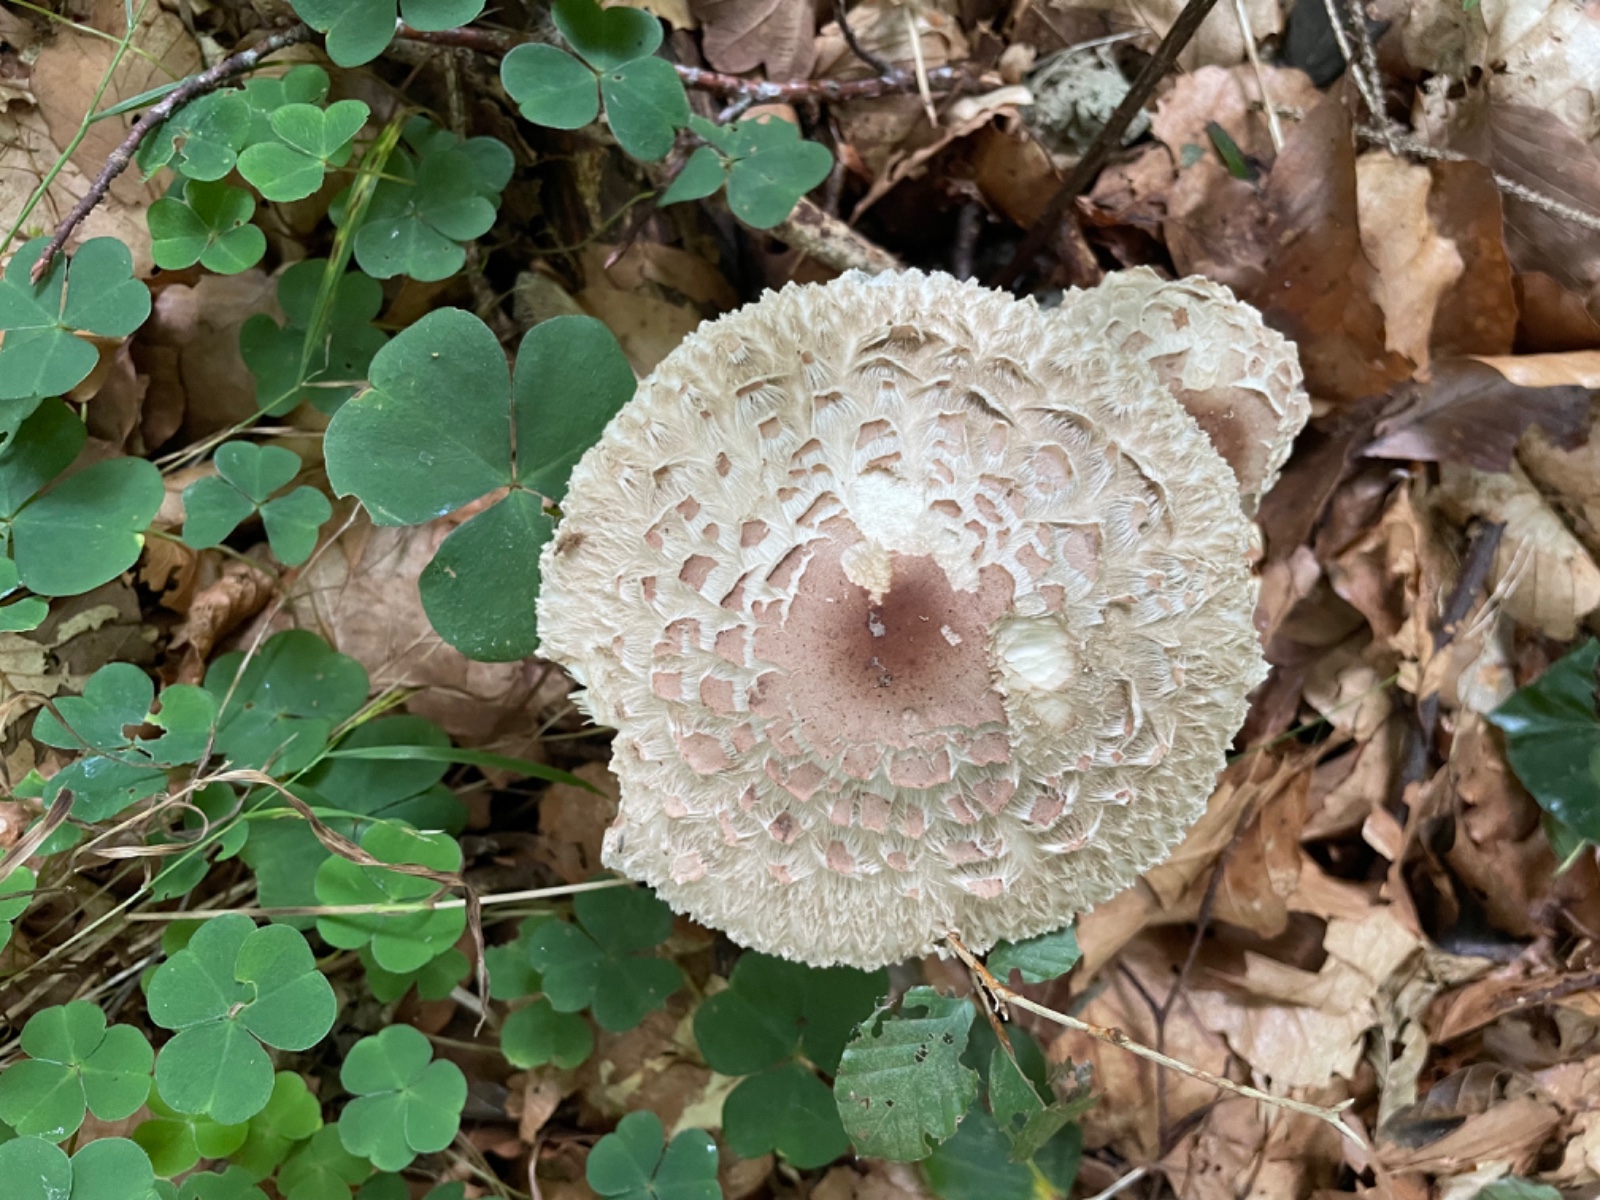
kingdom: Fungi
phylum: Basidiomycota
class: Agaricomycetes
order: Agaricales
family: Agaricaceae
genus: Chlorophyllum
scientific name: Chlorophyllum olivieri
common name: almindelig rabarberhat
